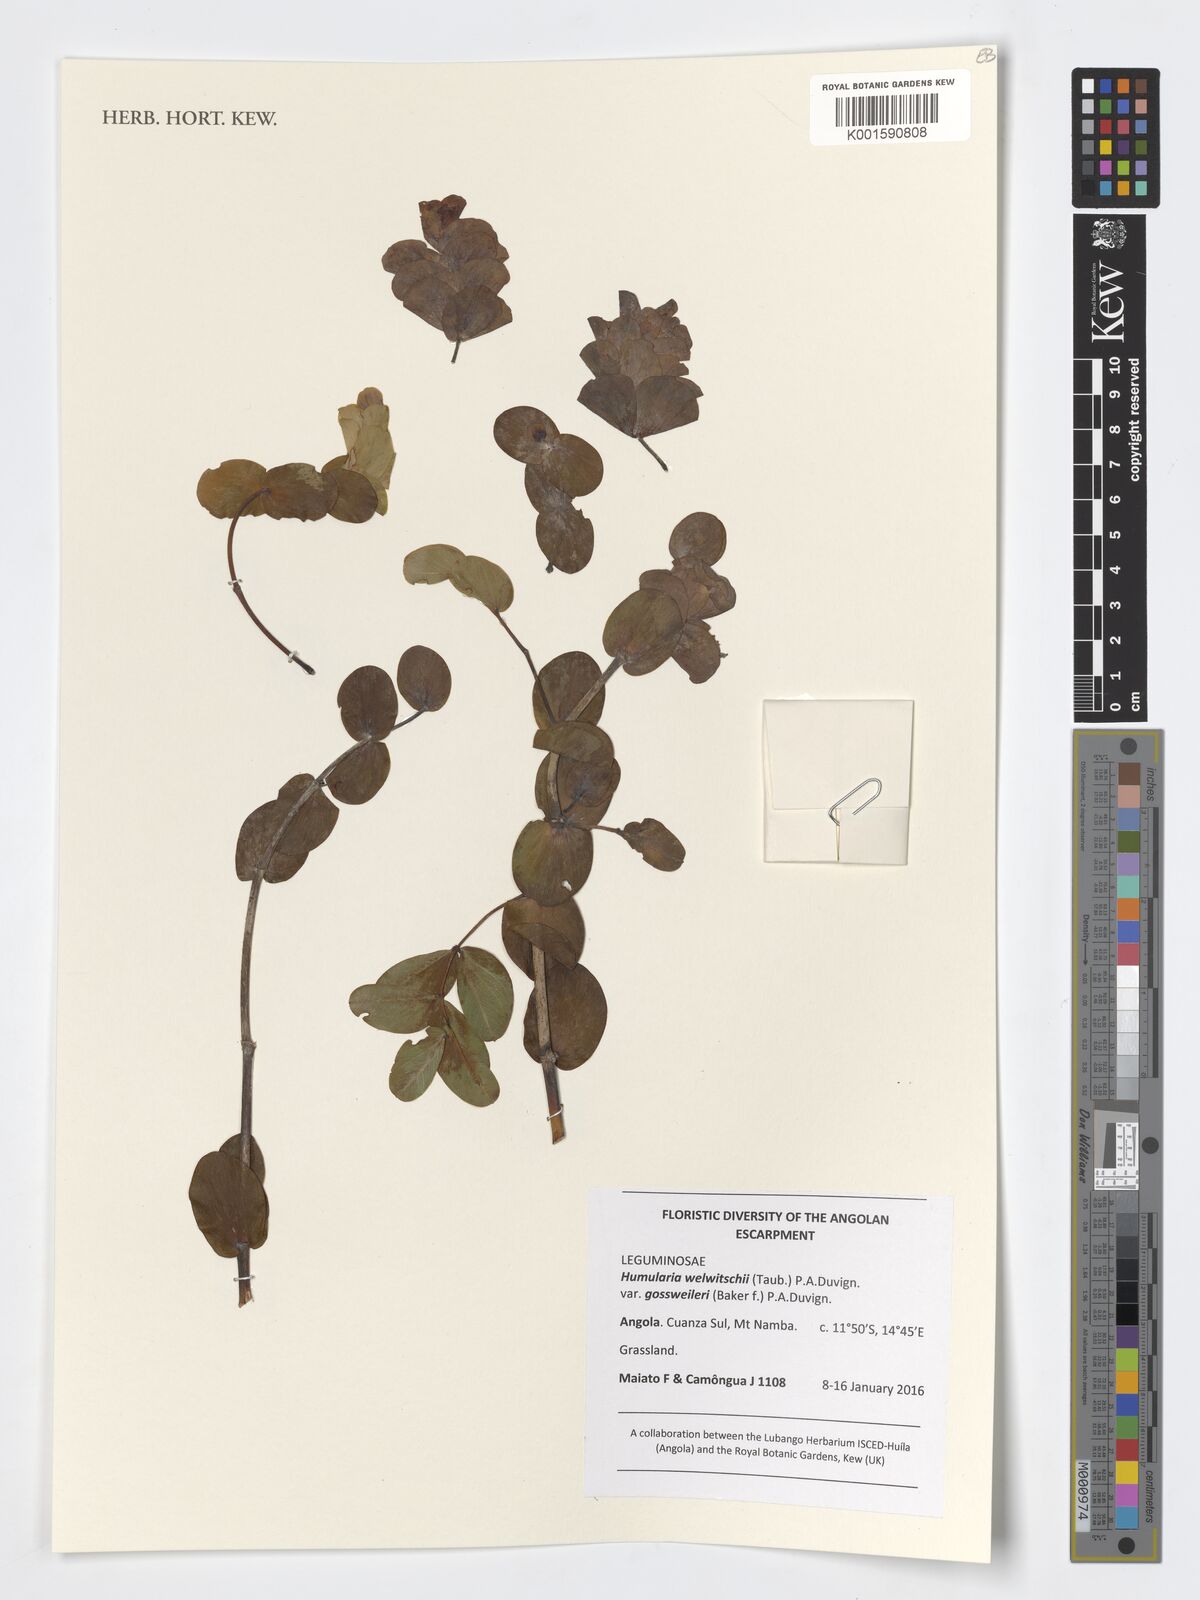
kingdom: Plantae
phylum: Tracheophyta
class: Magnoliopsida
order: Fabales
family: Fabaceae
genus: Humularia
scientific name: Humularia welwitschii
